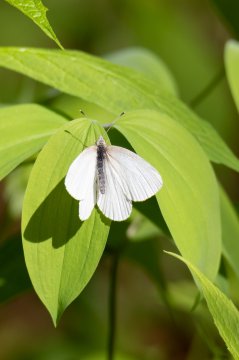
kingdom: Animalia
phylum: Arthropoda
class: Insecta
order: Lepidoptera
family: Pieridae
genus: Pieris
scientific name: Pieris virginiensis
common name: West Virginia White
